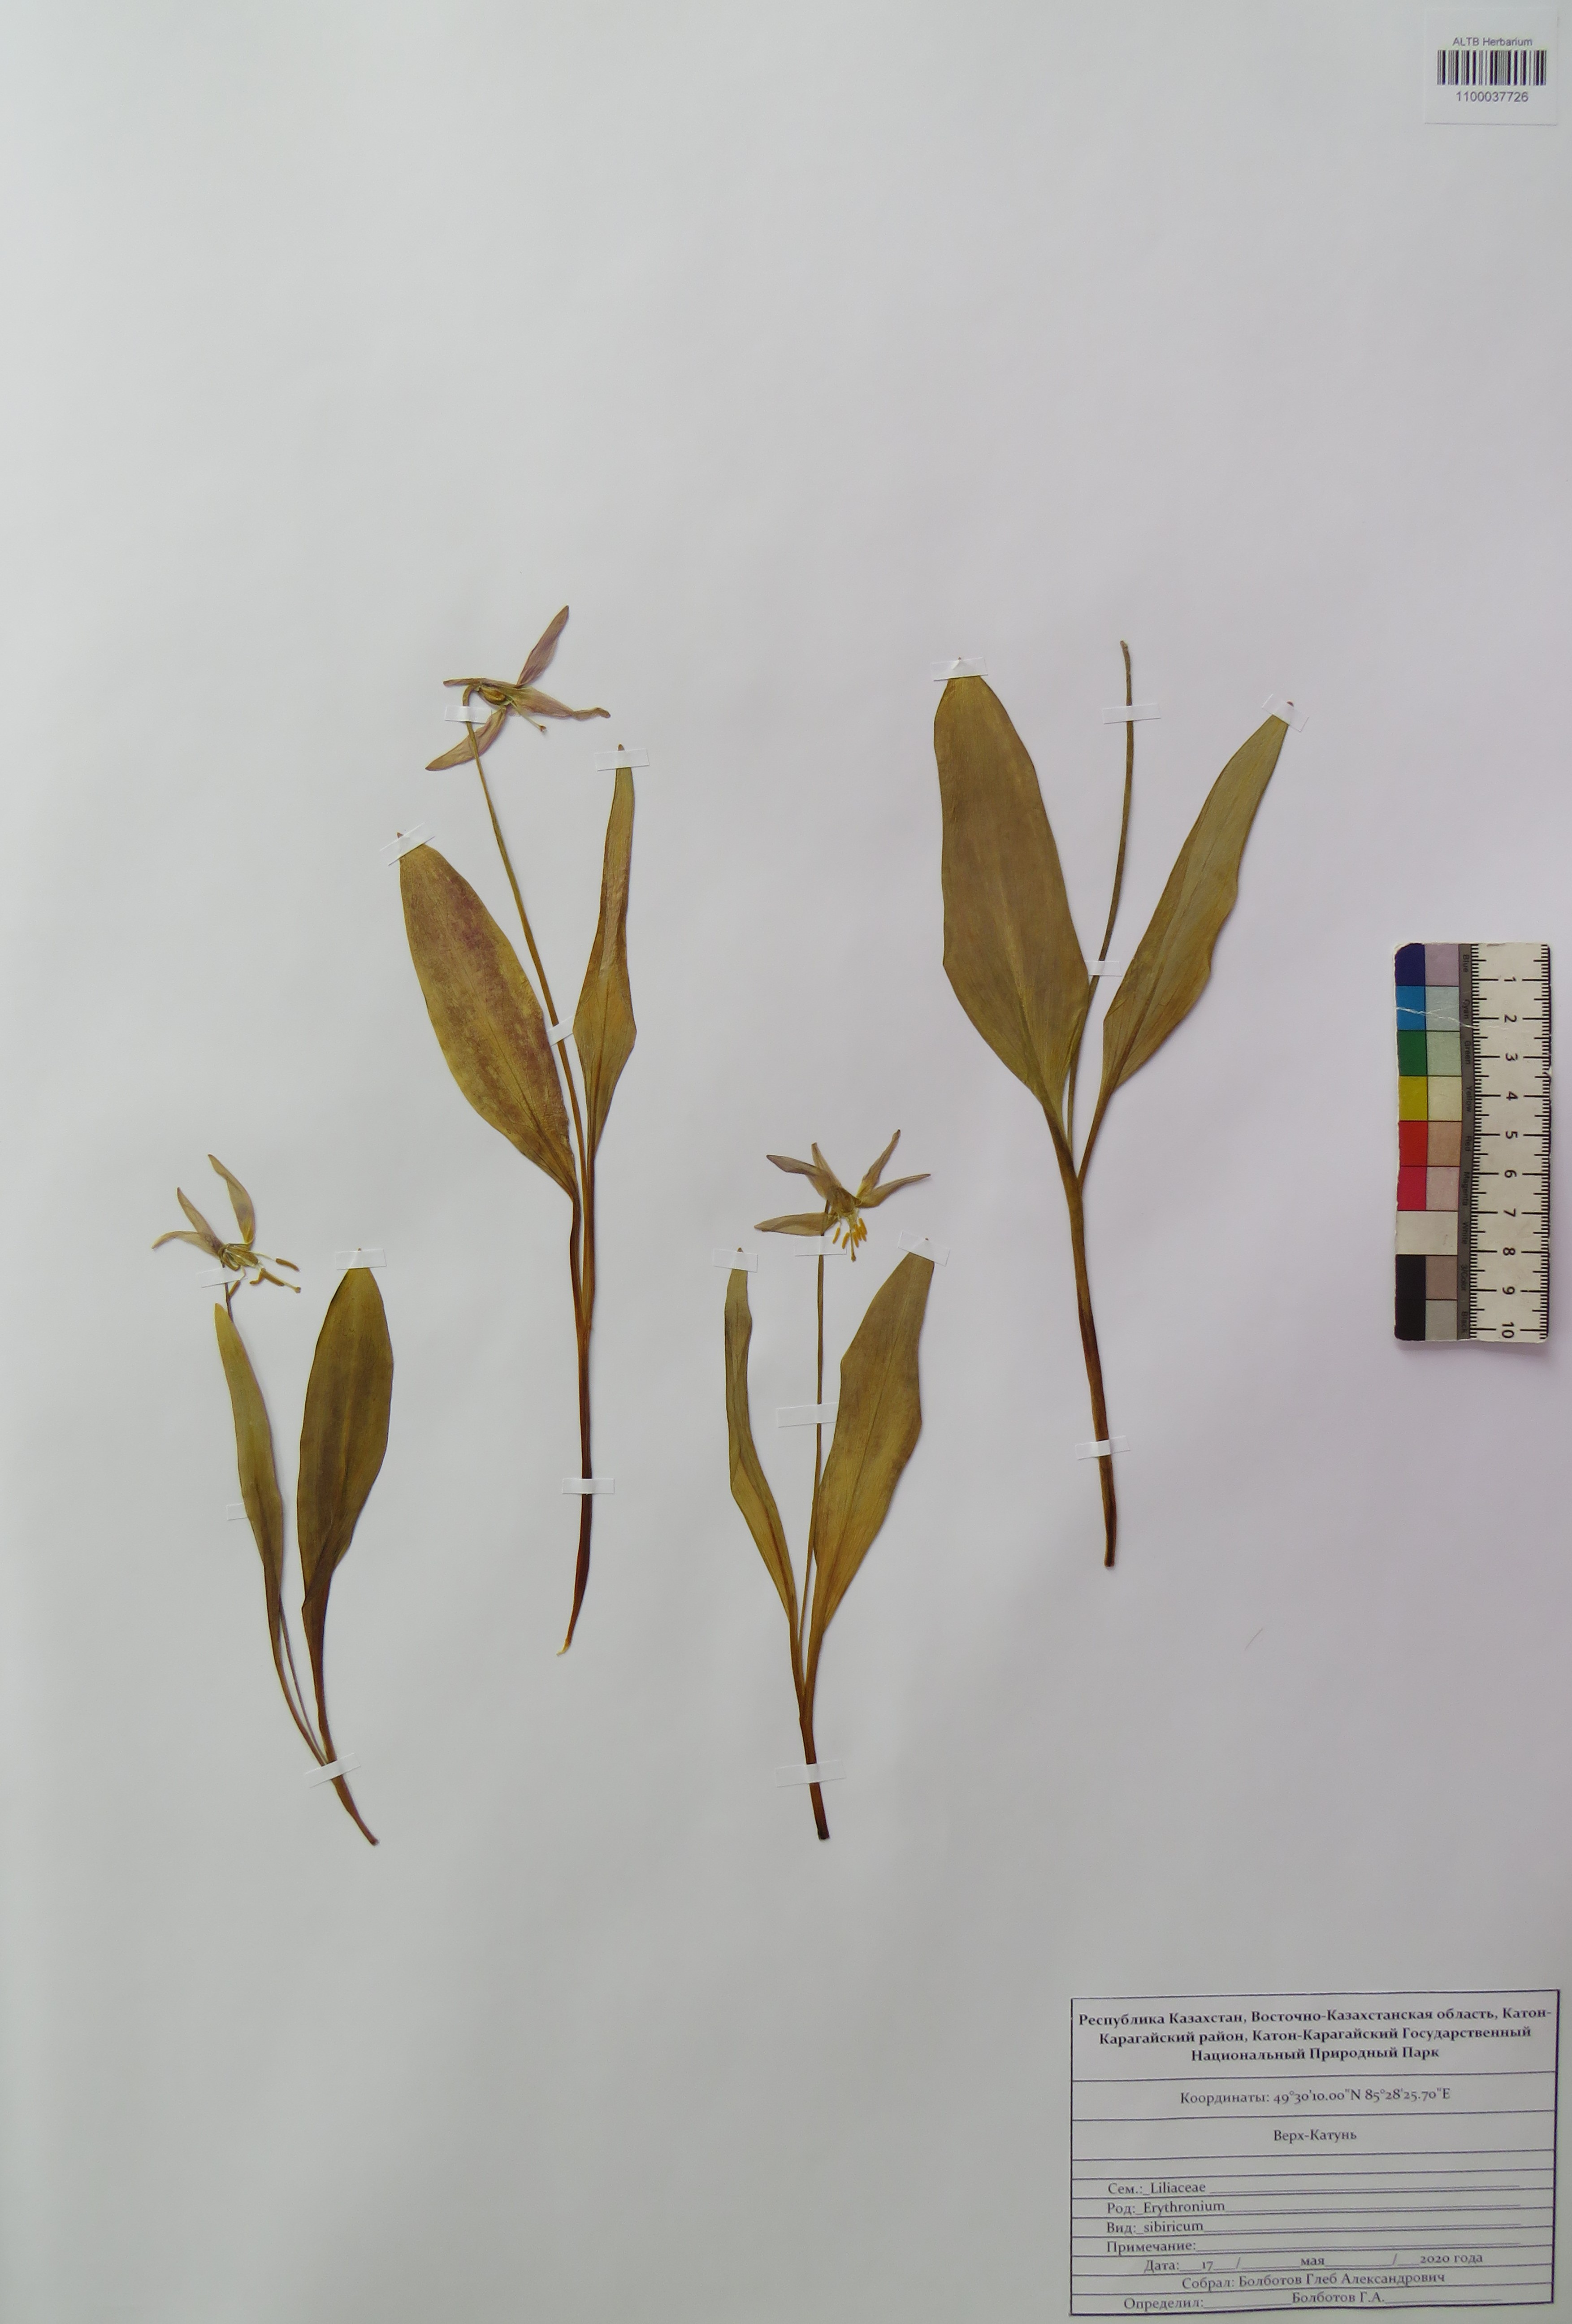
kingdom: Plantae
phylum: Tracheophyta
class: Liliopsida
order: Liliales
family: Liliaceae
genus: Erythronium
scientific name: Erythronium sibiricum
